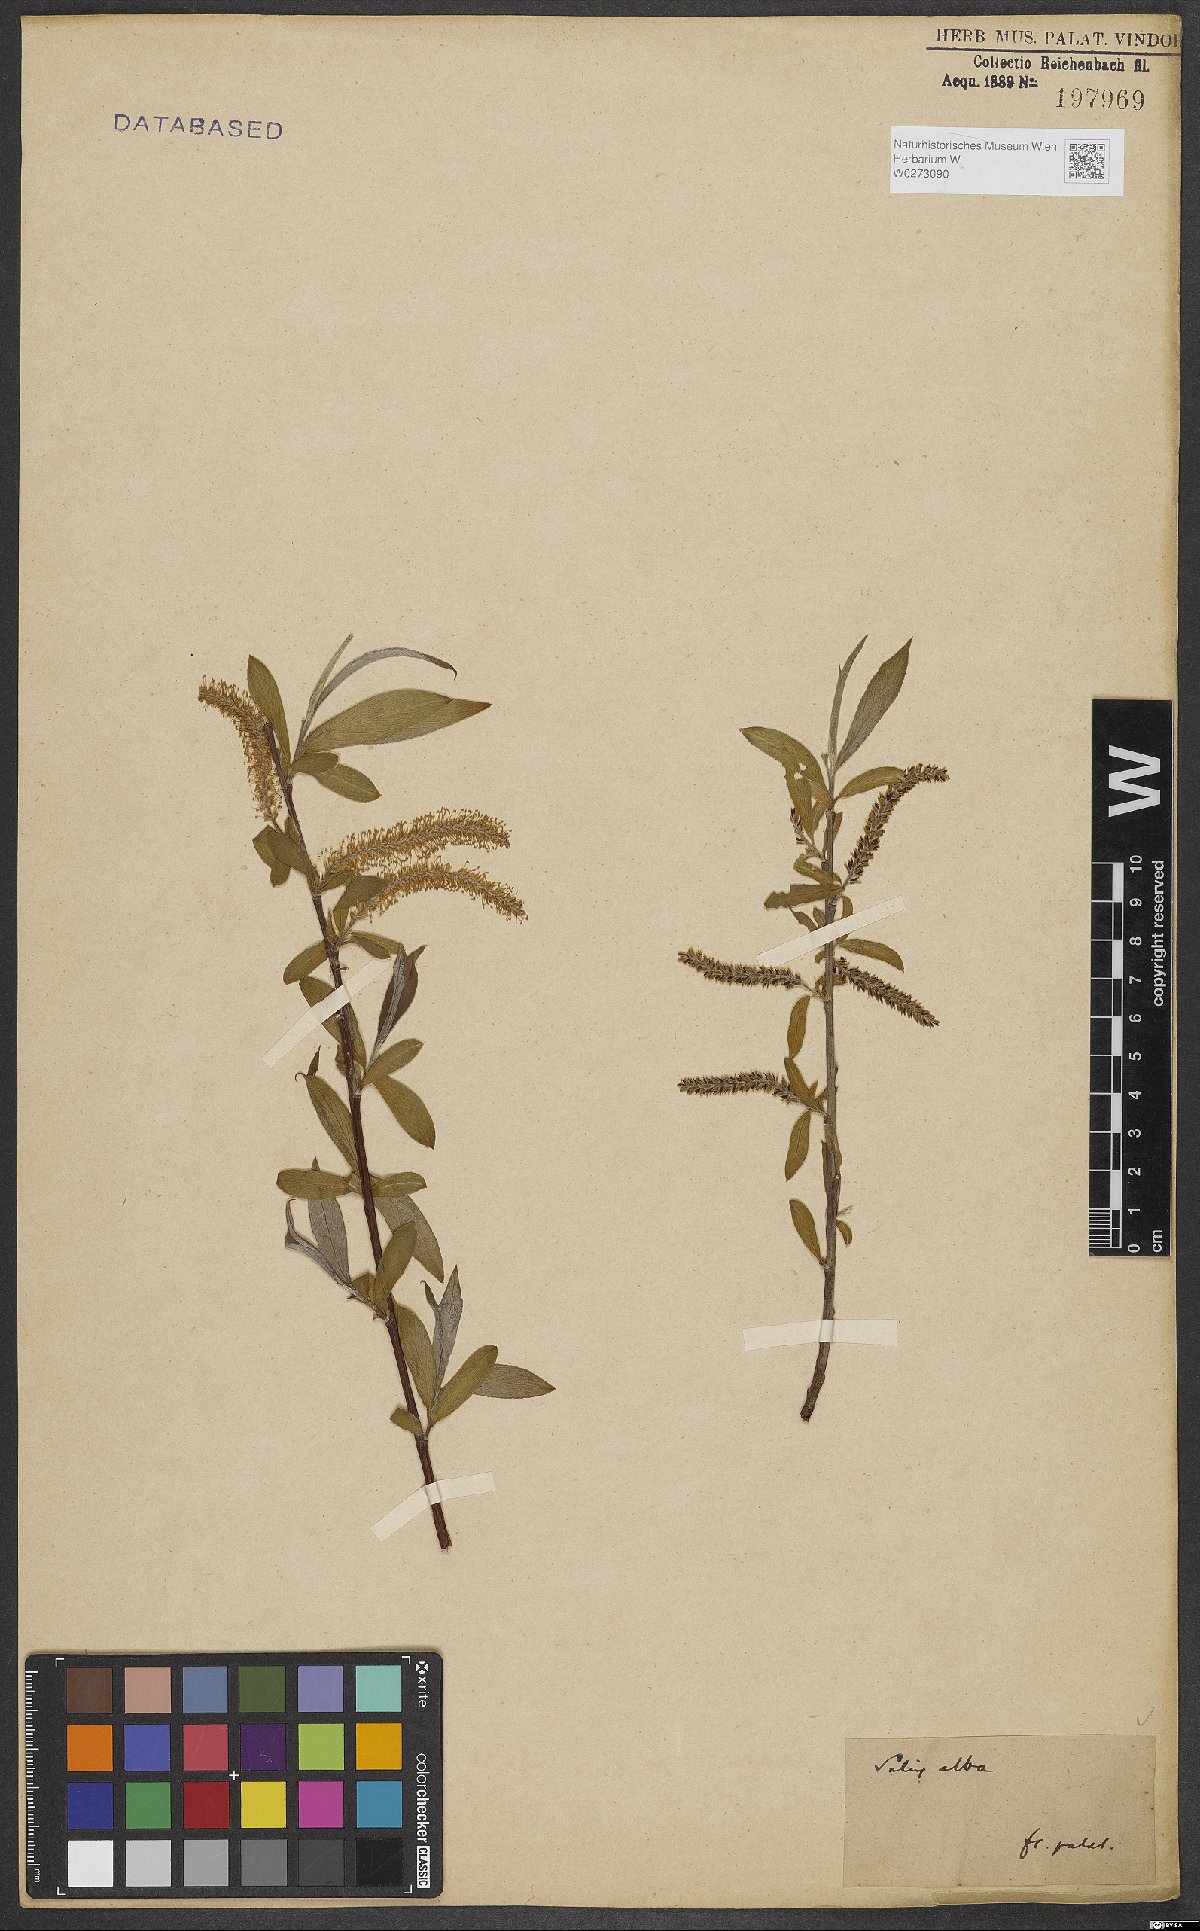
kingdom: Plantae
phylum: Tracheophyta
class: Magnoliopsida
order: Malpighiales
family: Salicaceae
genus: Salix
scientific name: Salix alba
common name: White willow
